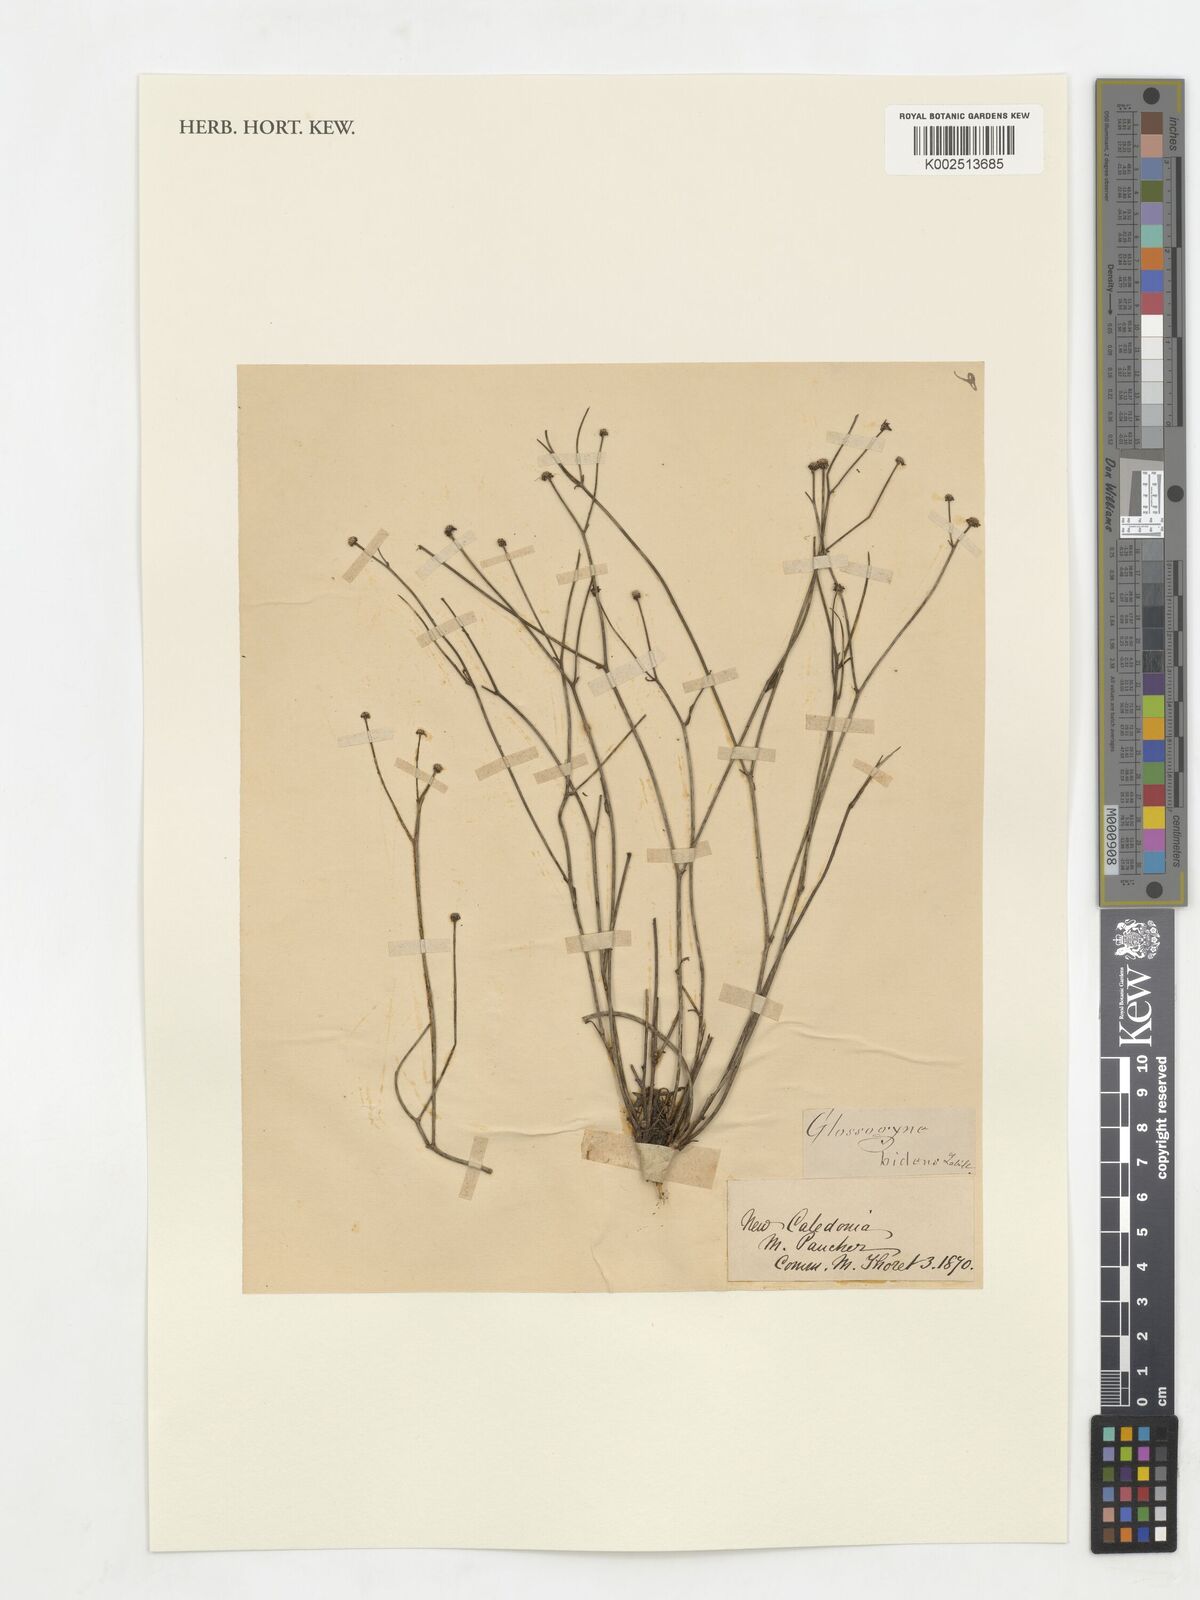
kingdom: Plantae
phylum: Tracheophyta
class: Magnoliopsida
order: Asterales
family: Asteraceae
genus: Glossocardia
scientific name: Glossocardia bidens
